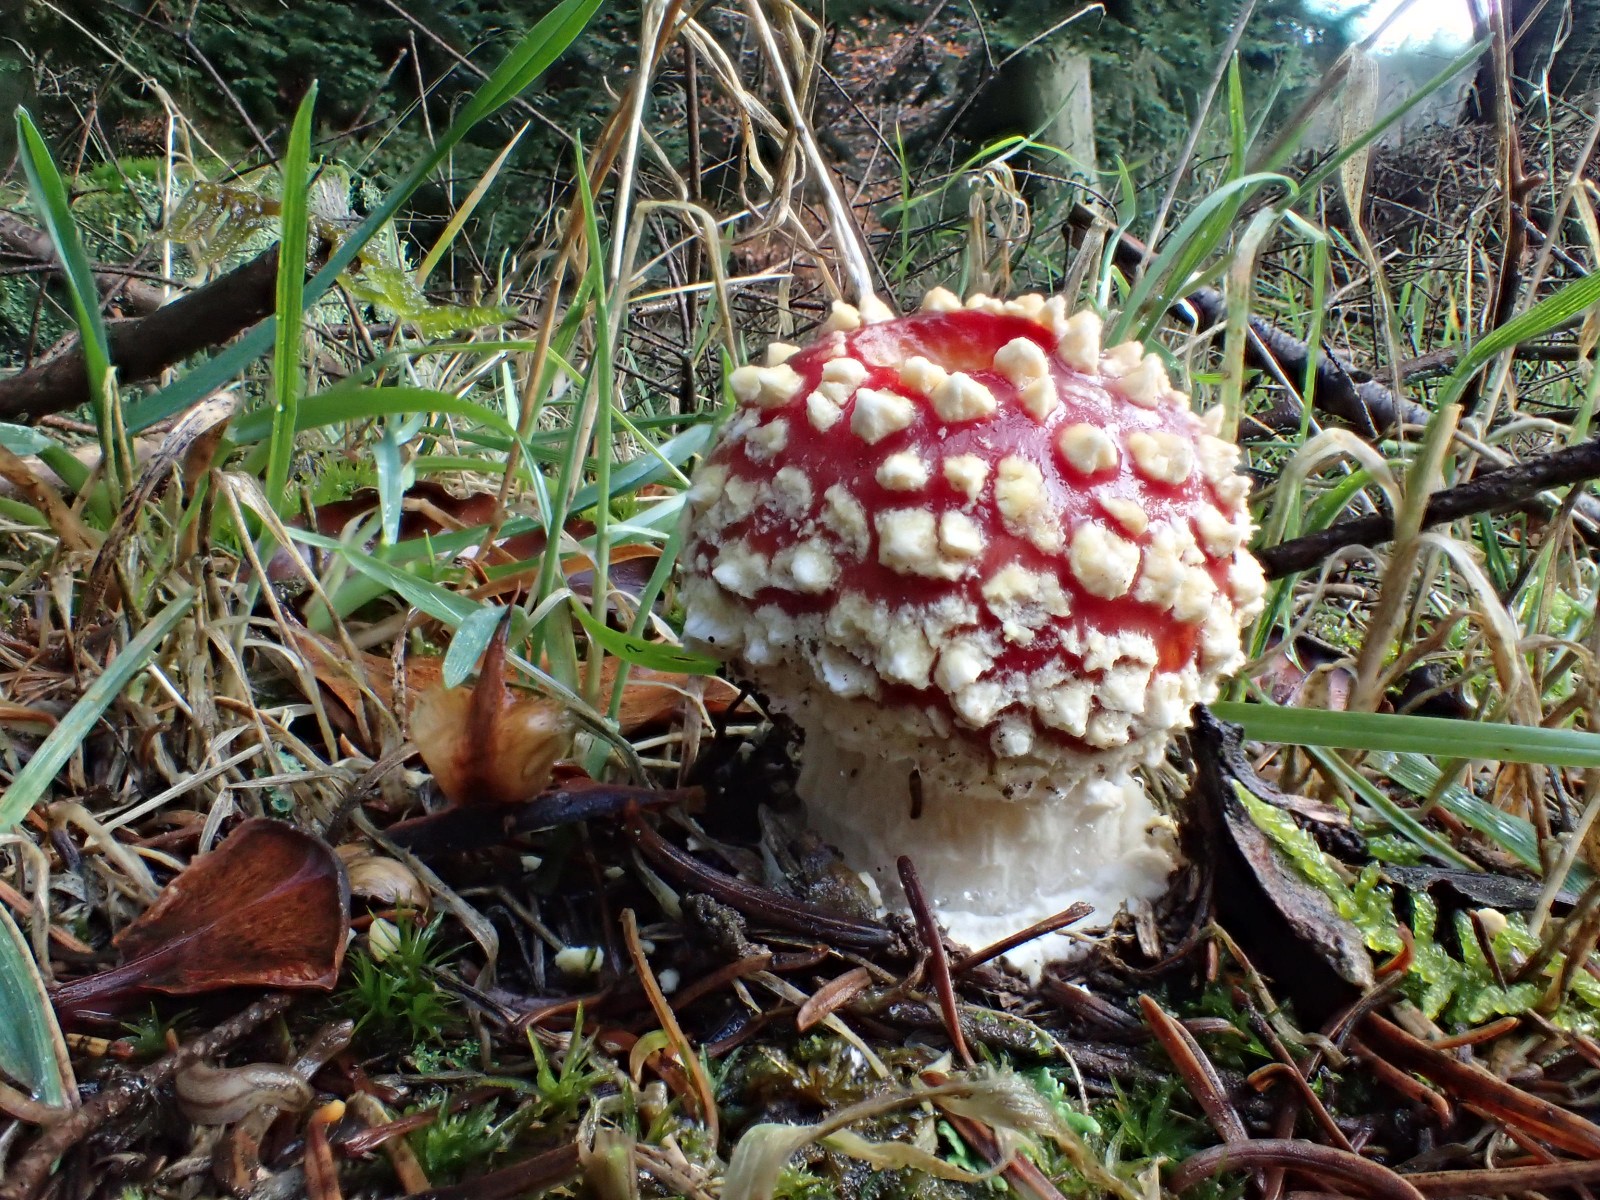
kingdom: Fungi
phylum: Basidiomycota
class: Agaricomycetes
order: Agaricales
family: Amanitaceae
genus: Amanita
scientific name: Amanita muscaria
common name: rød fluesvamp
